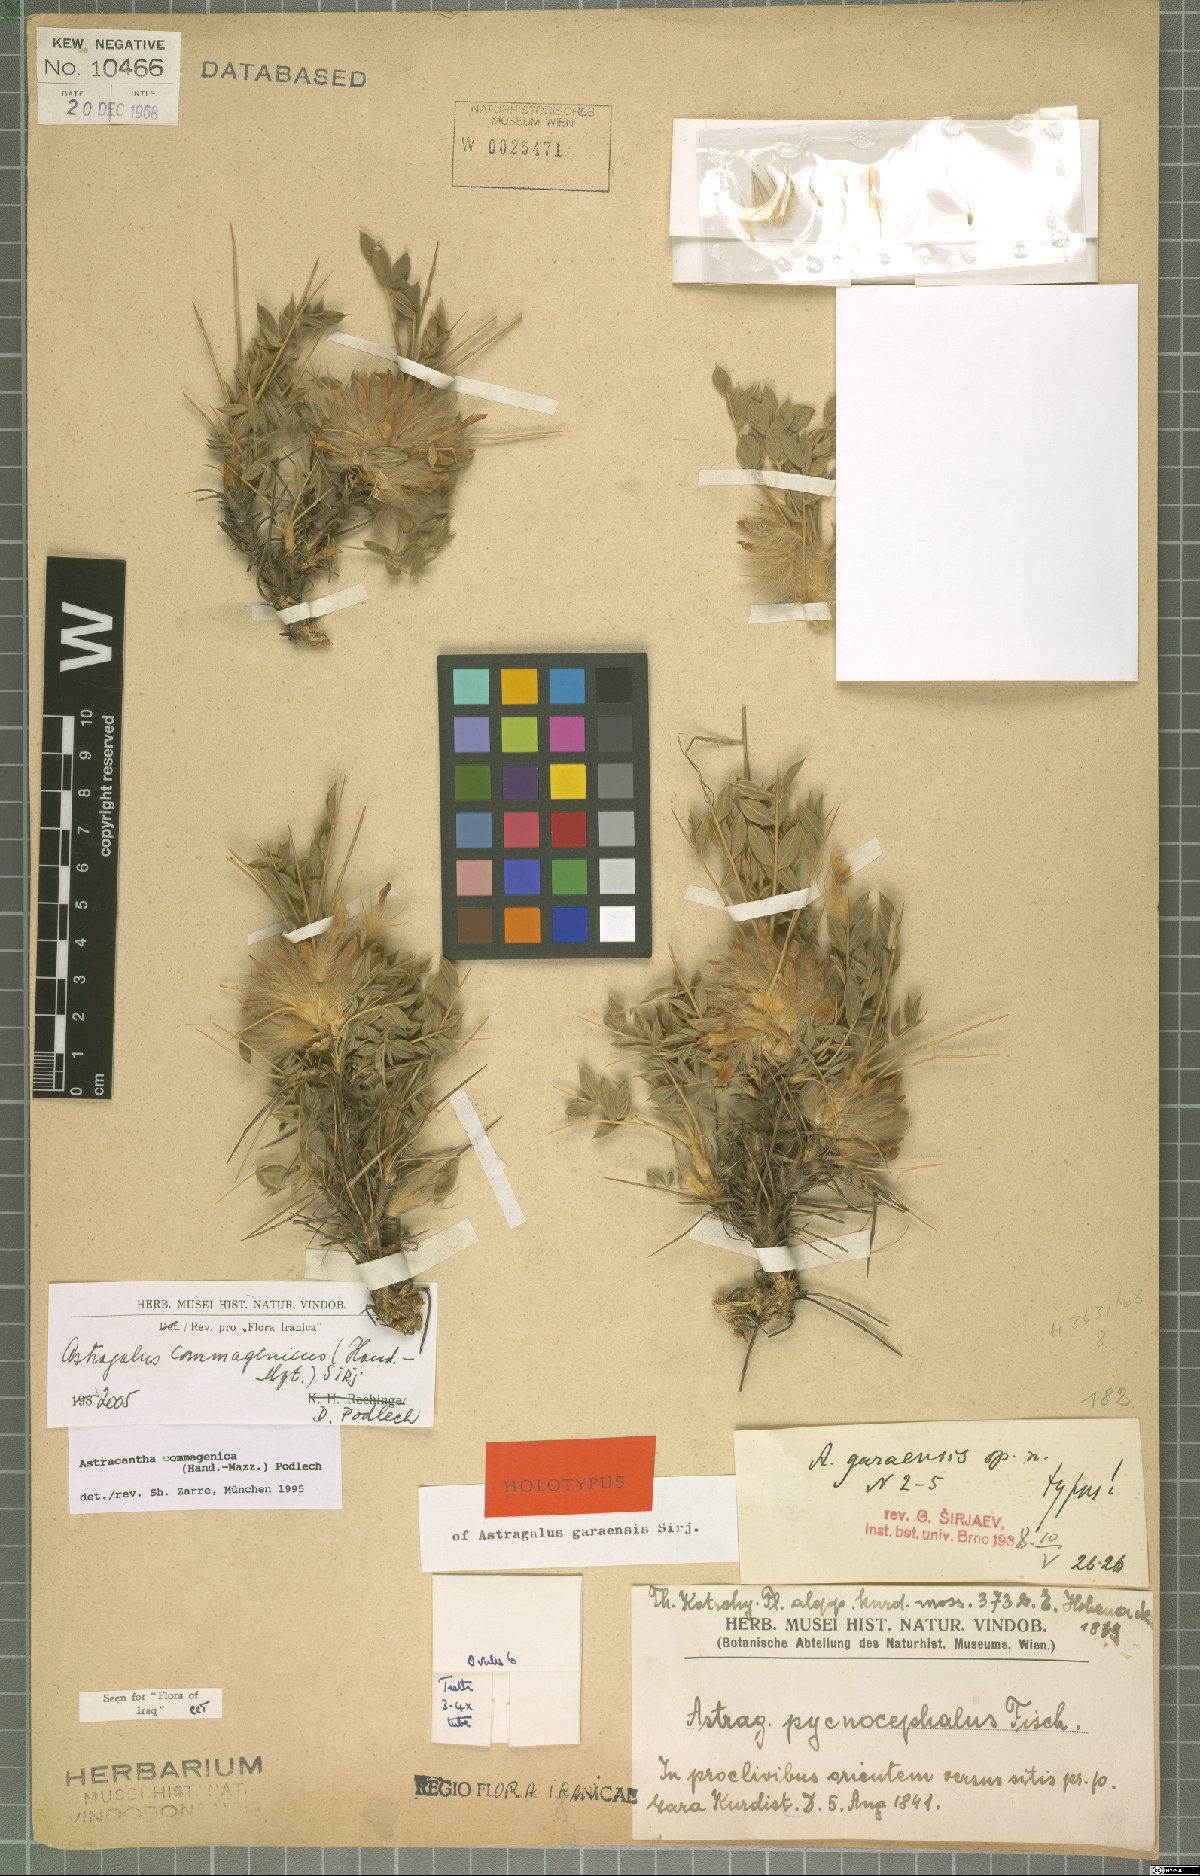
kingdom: Plantae
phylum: Tracheophyta
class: Magnoliopsida
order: Fabales
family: Fabaceae
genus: Astragalus
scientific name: Astragalus commagenicus
